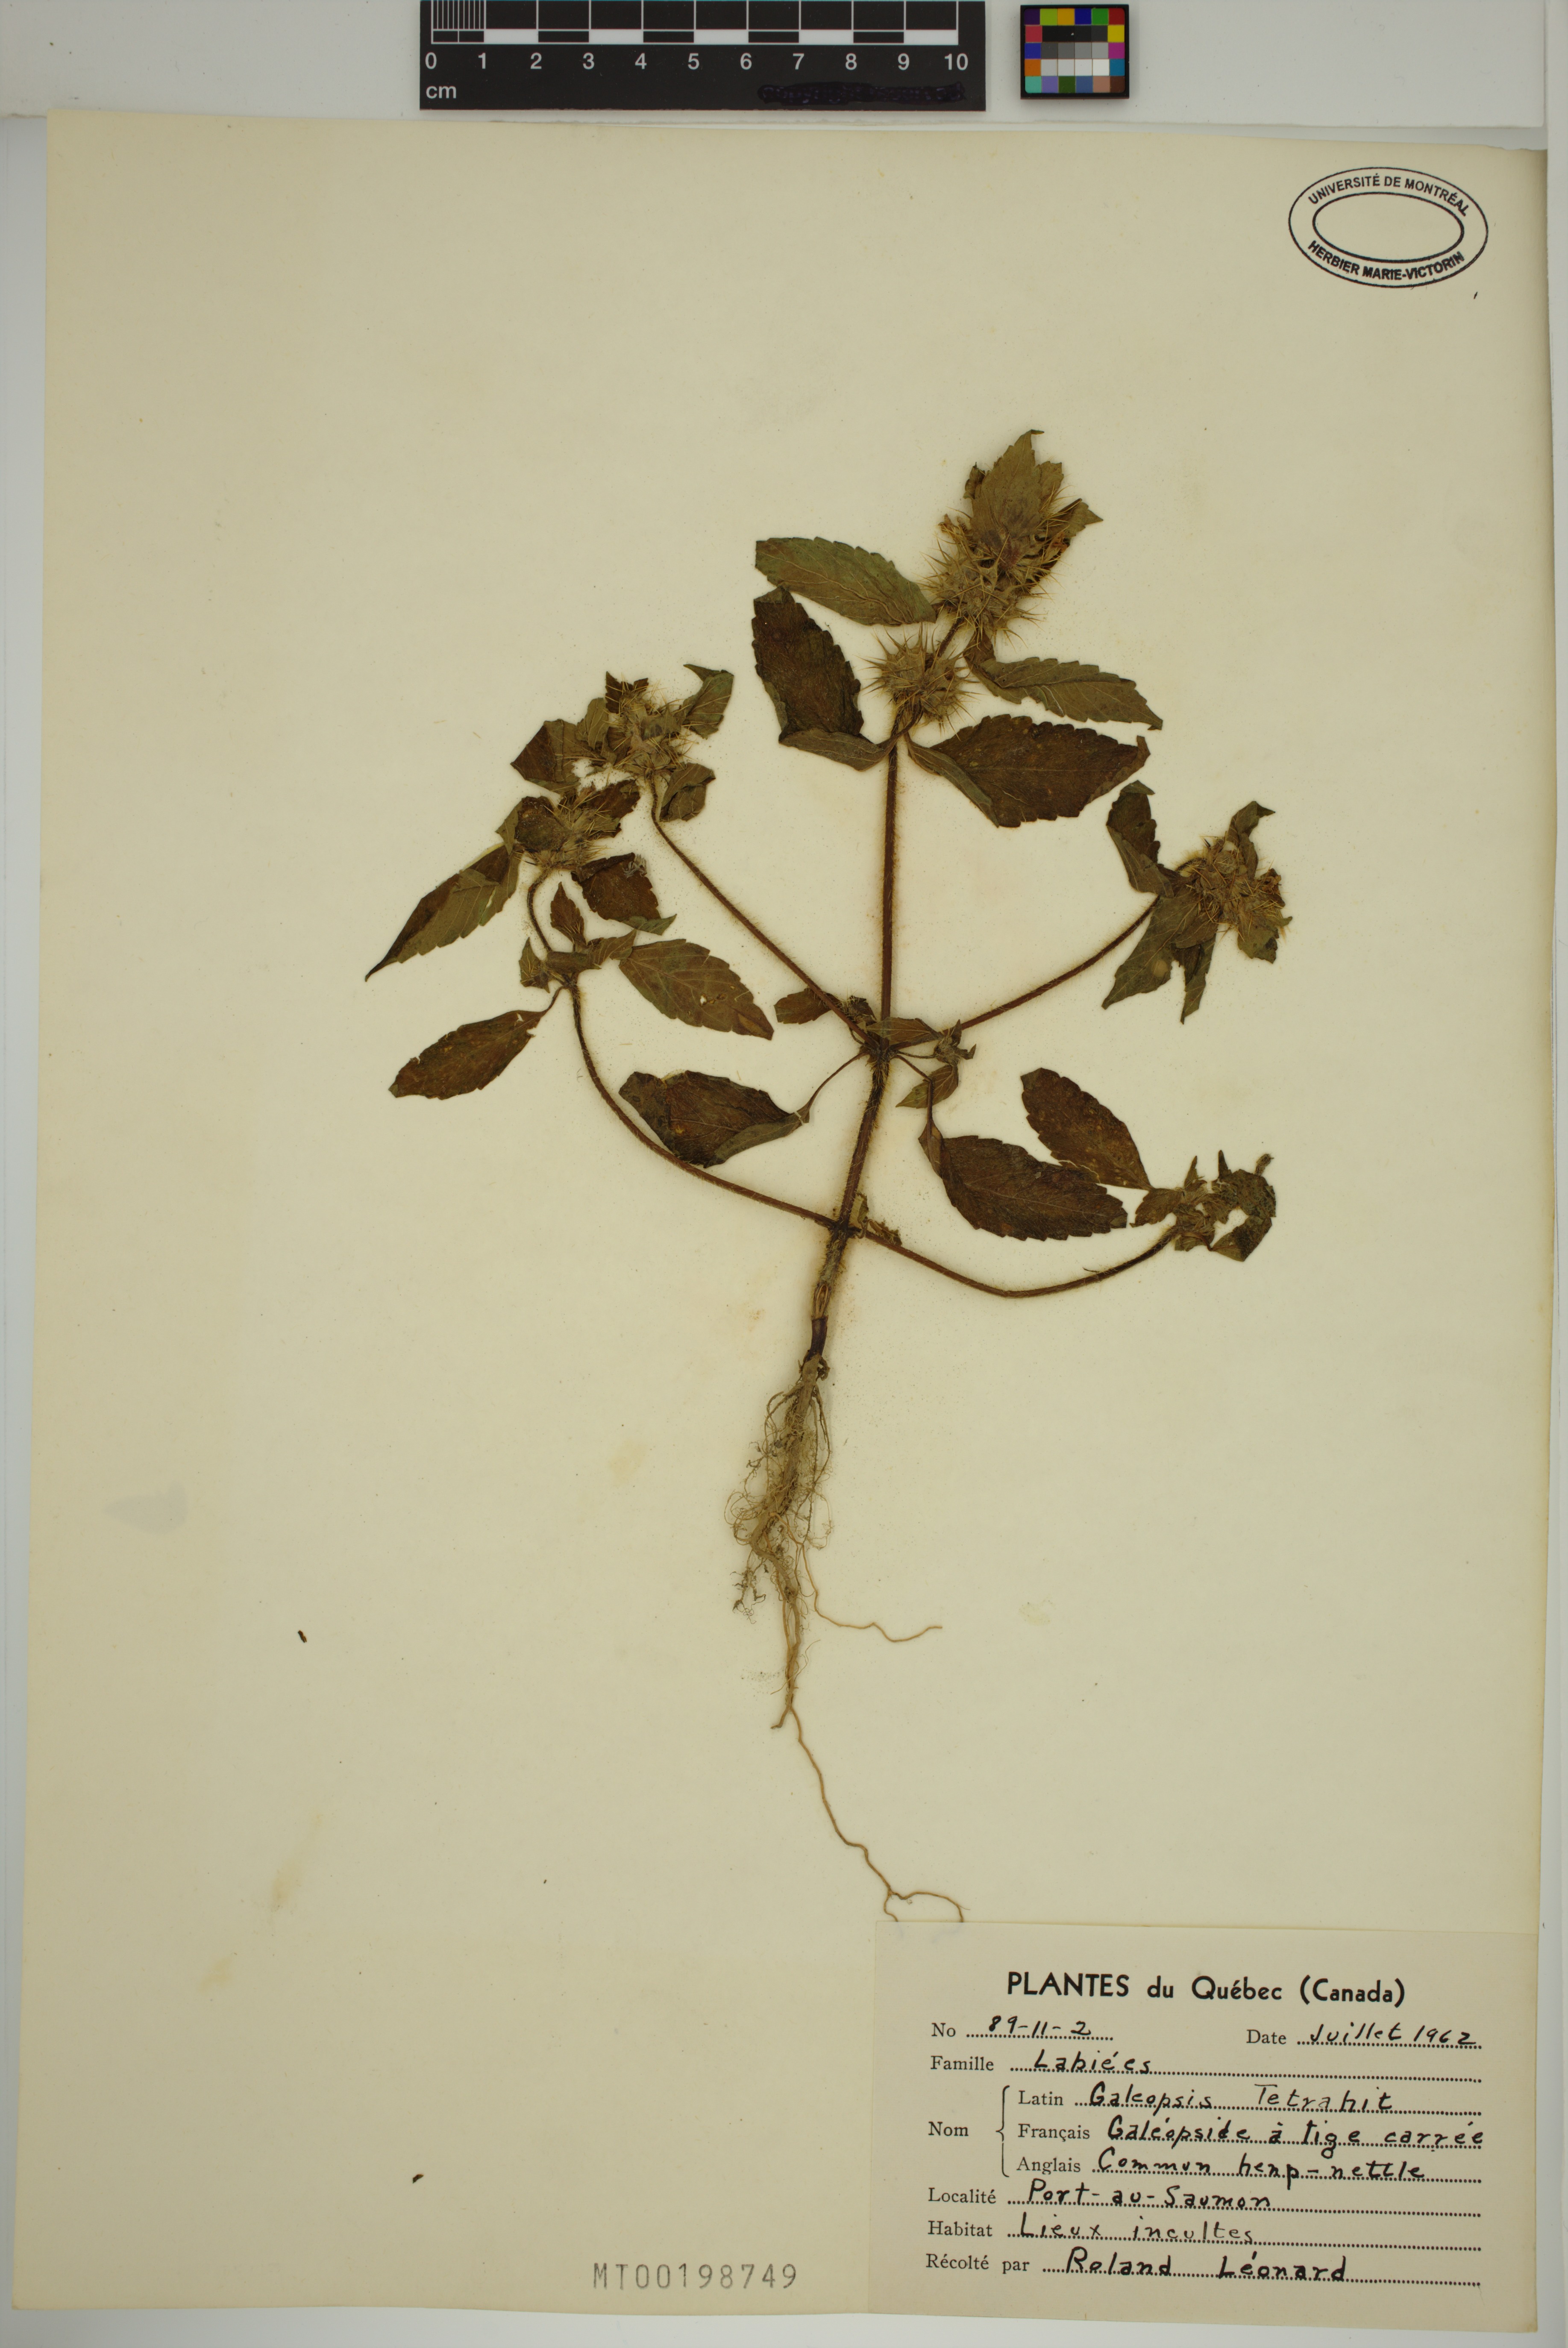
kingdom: Plantae
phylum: Tracheophyta
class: Magnoliopsida
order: Lamiales
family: Lamiaceae
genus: Galeopsis
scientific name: Galeopsis tetrahit
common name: Common hemp-nettle
